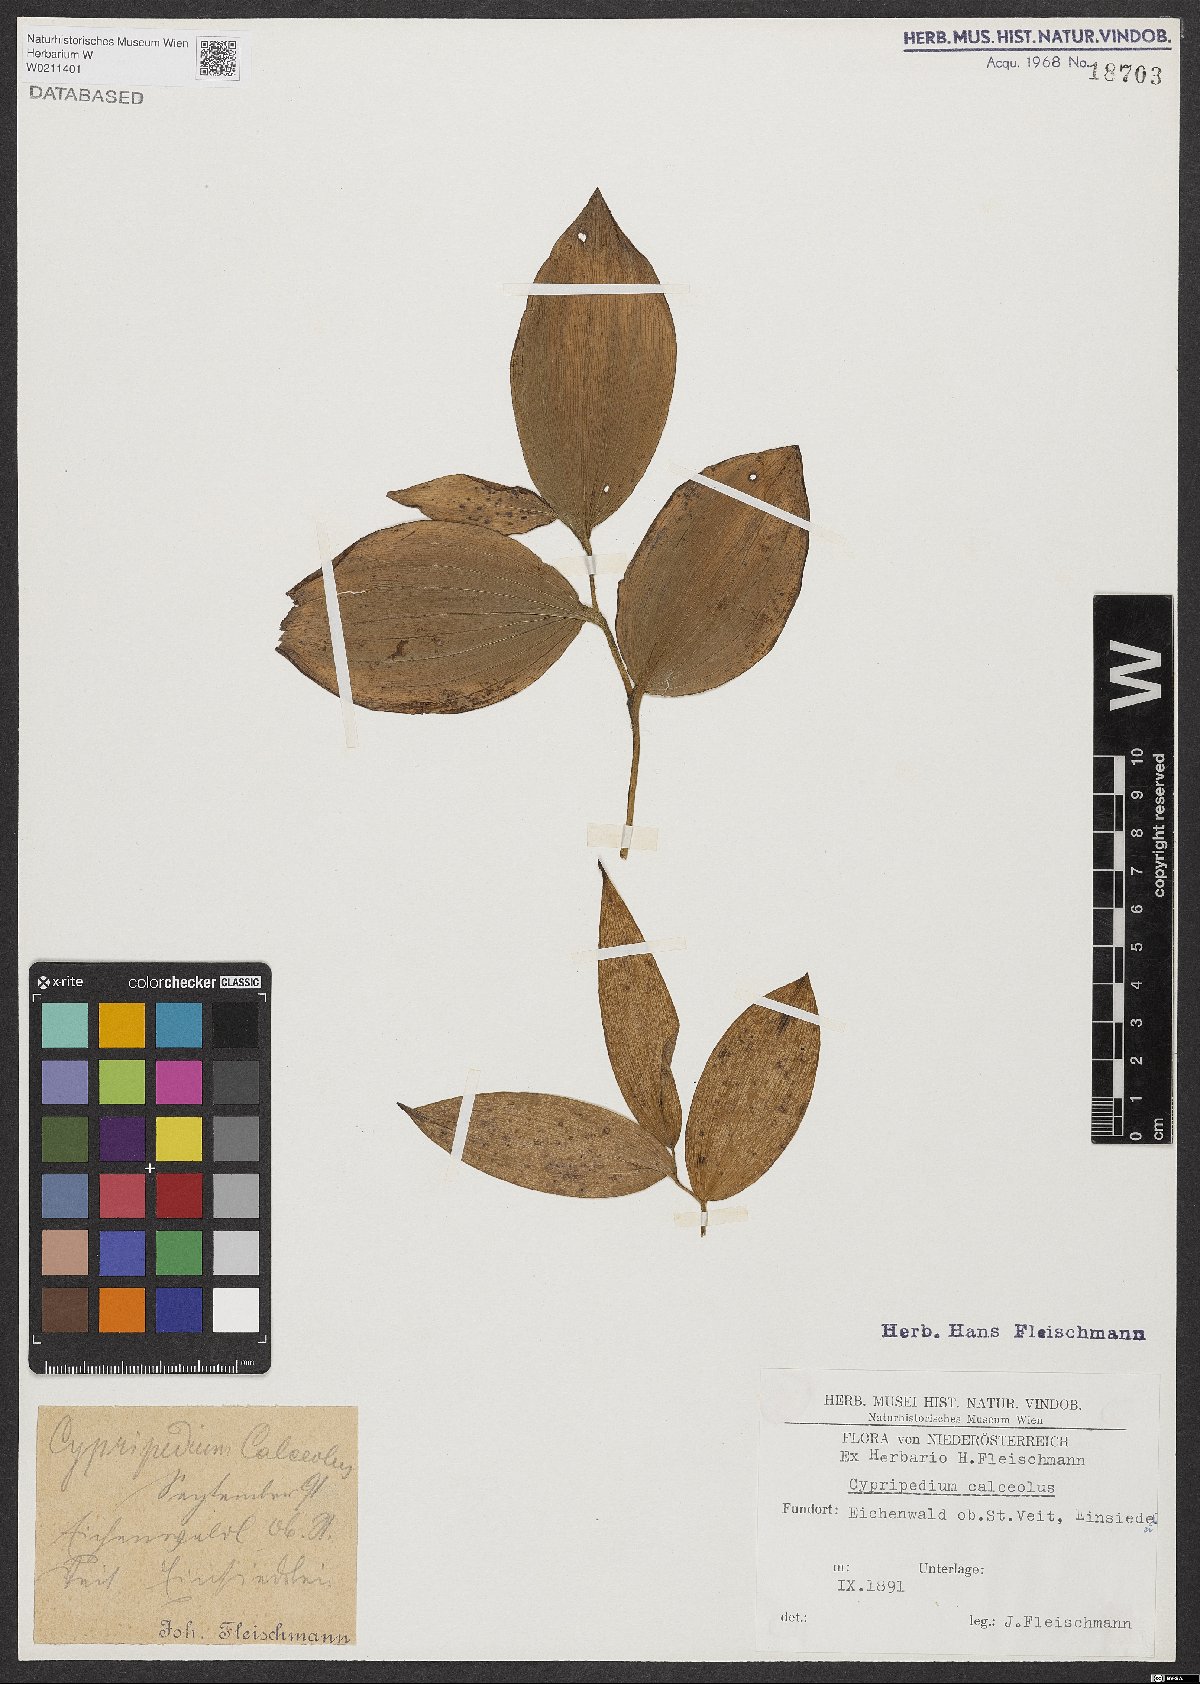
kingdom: Plantae
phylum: Tracheophyta
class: Liliopsida
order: Asparagales
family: Orchidaceae
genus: Cypripedium
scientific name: Cypripedium calceolus
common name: Lady's-slipper
